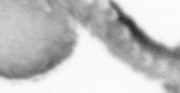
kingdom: Animalia
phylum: Annelida
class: Polychaeta
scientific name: Polychaeta
